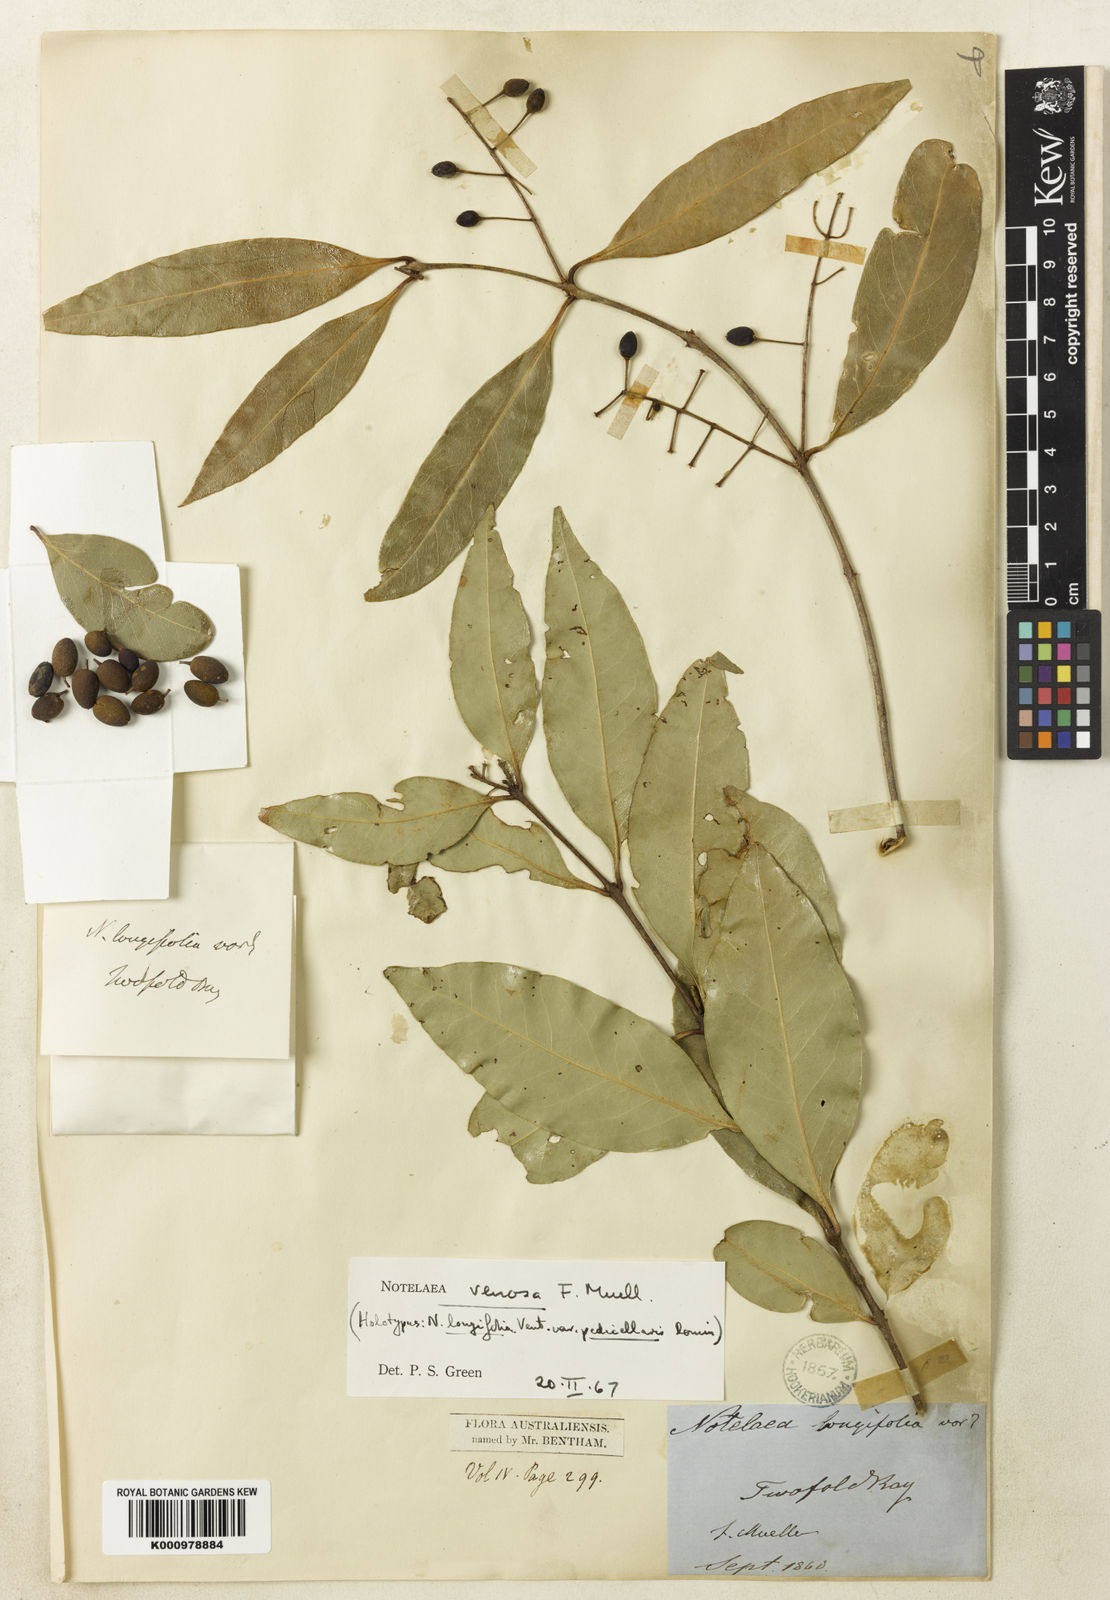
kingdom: Plantae
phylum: Tracheophyta
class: Magnoliopsida
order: Lamiales
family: Oleaceae
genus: Notelaea
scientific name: Notelaea venosa
